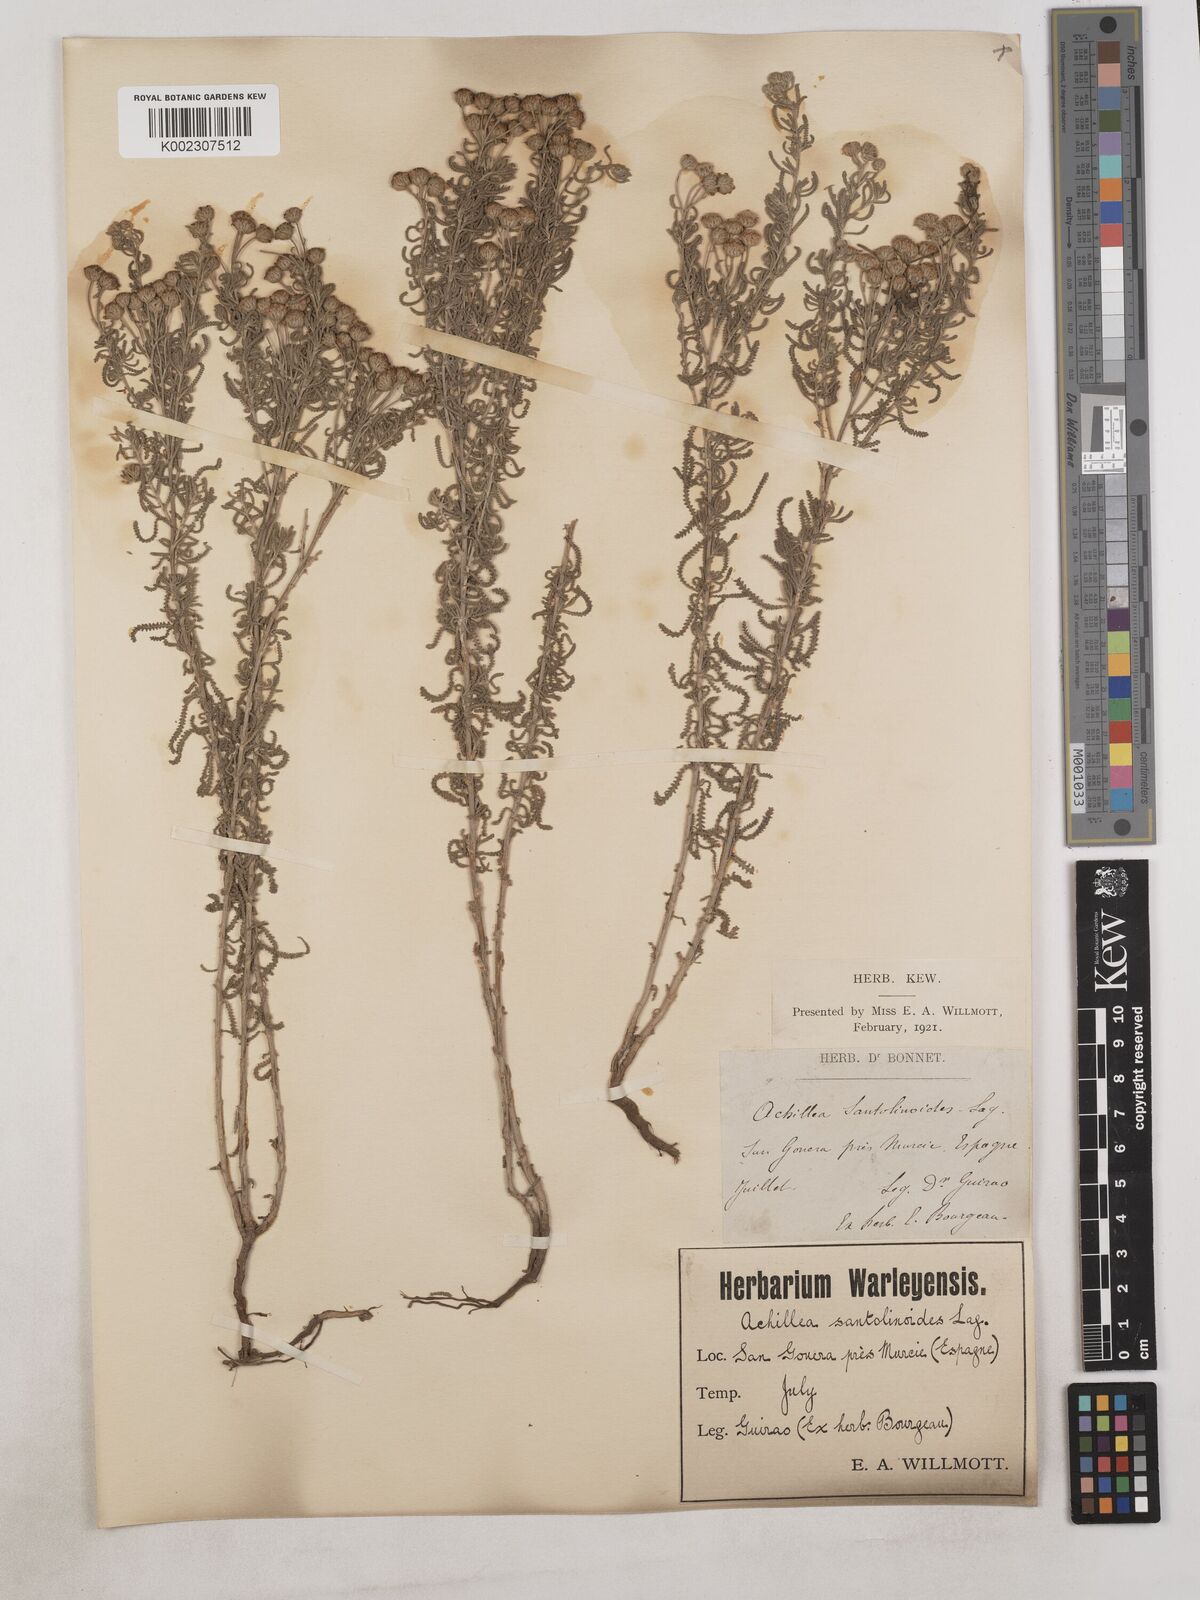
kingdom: Plantae
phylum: Tracheophyta
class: Magnoliopsida
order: Asterales
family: Asteraceae
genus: Achillea
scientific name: Achillea santolinoides
